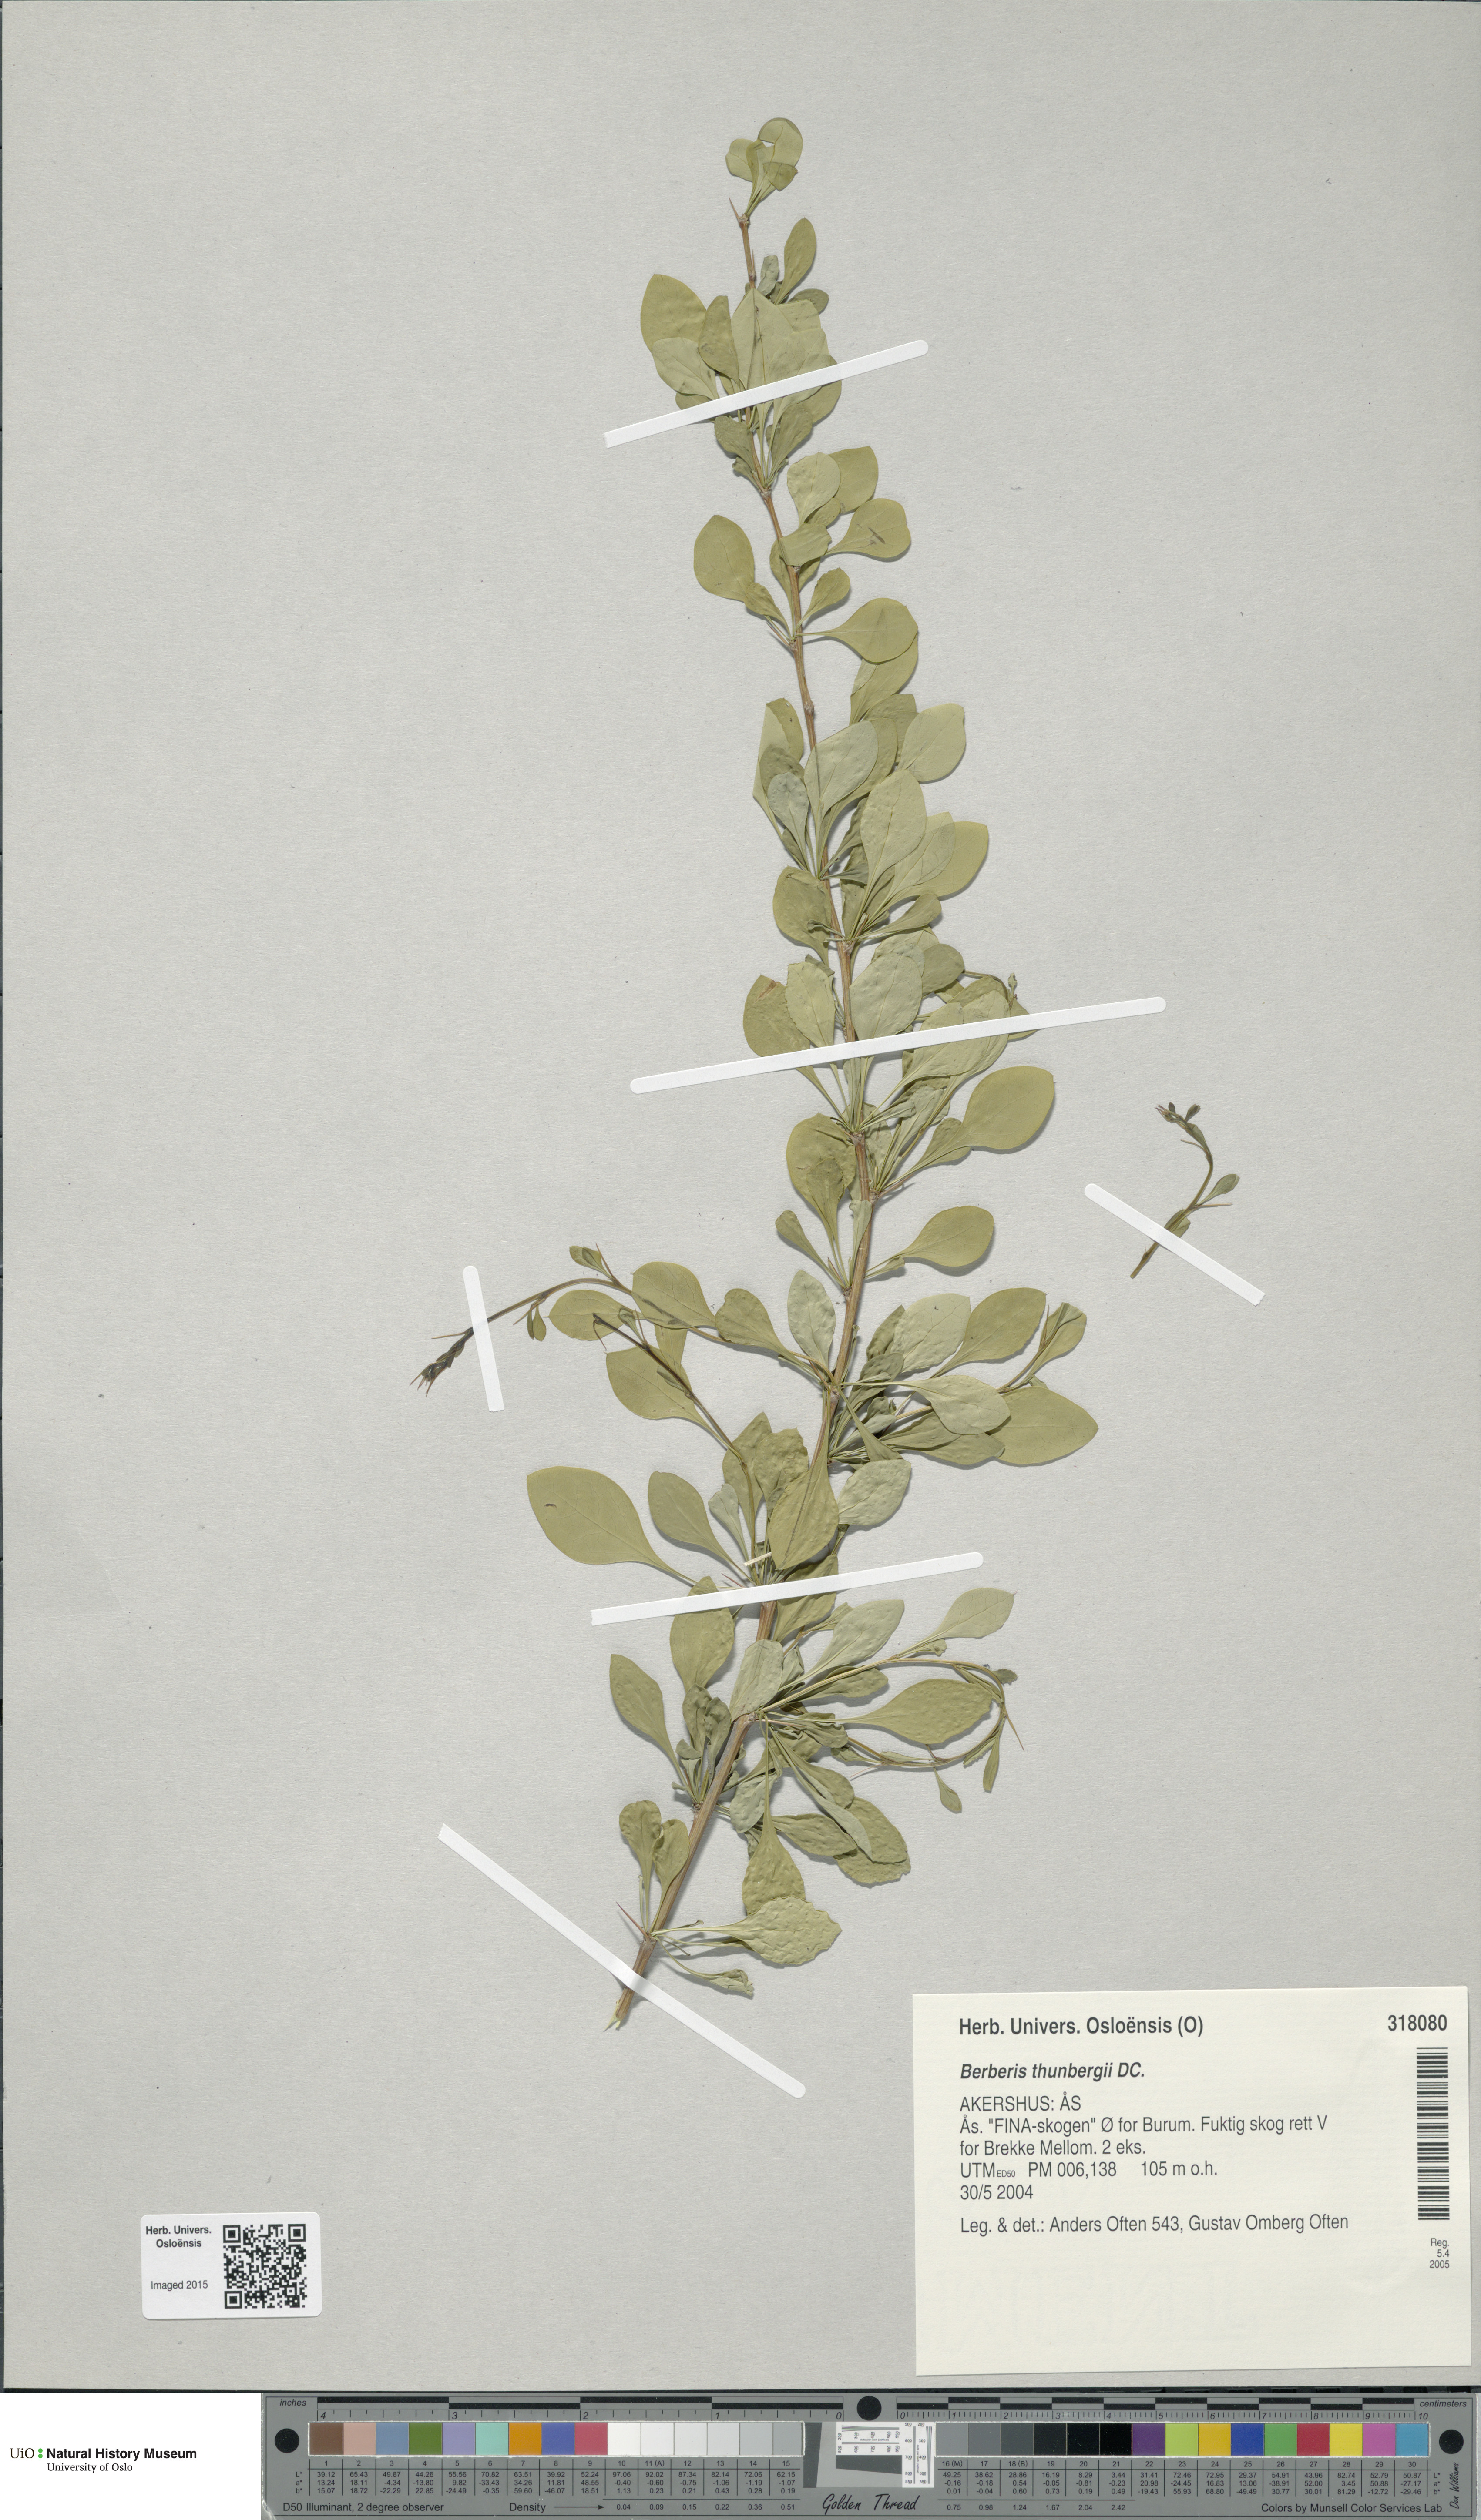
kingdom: Plantae
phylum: Tracheophyta
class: Magnoliopsida
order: Ranunculales
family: Berberidaceae
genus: Berberis
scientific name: Berberis thunbergii
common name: Japanese barberry
